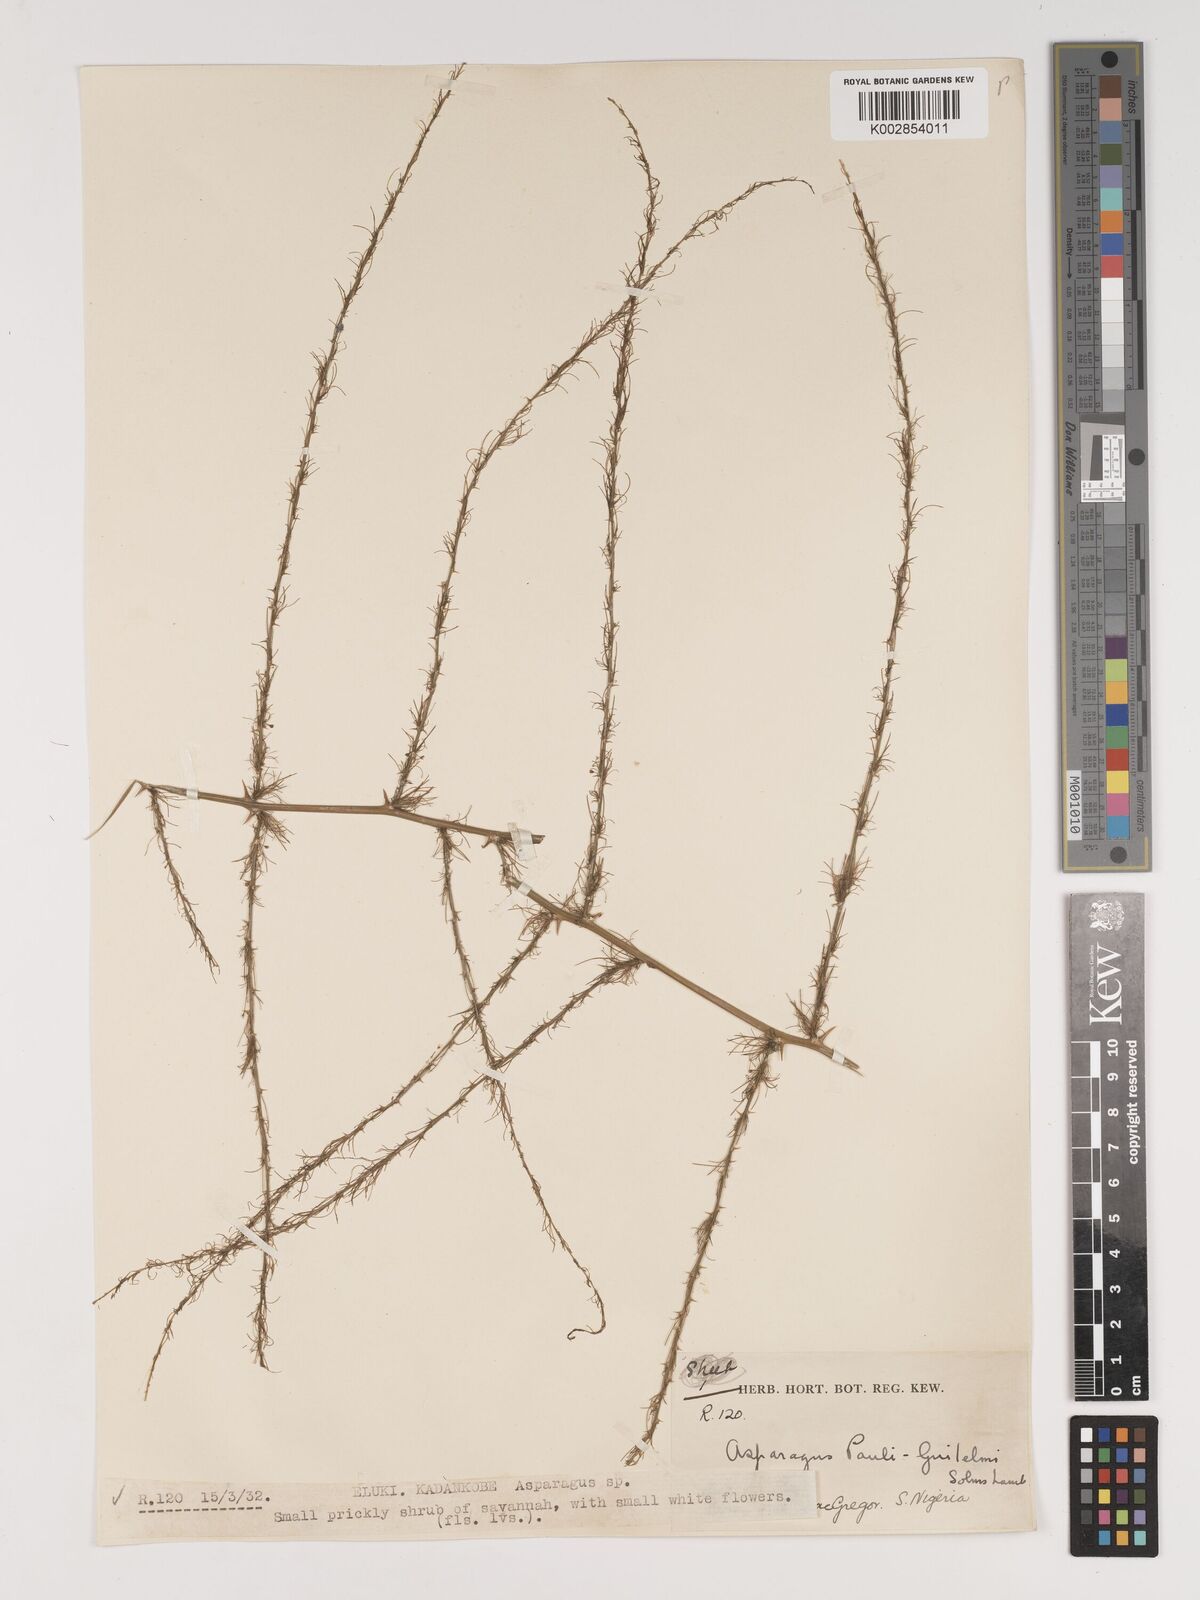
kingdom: Plantae
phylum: Tracheophyta
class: Liliopsida
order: Asparagales
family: Asparagaceae
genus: Asparagus
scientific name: Asparagus flagellaris
